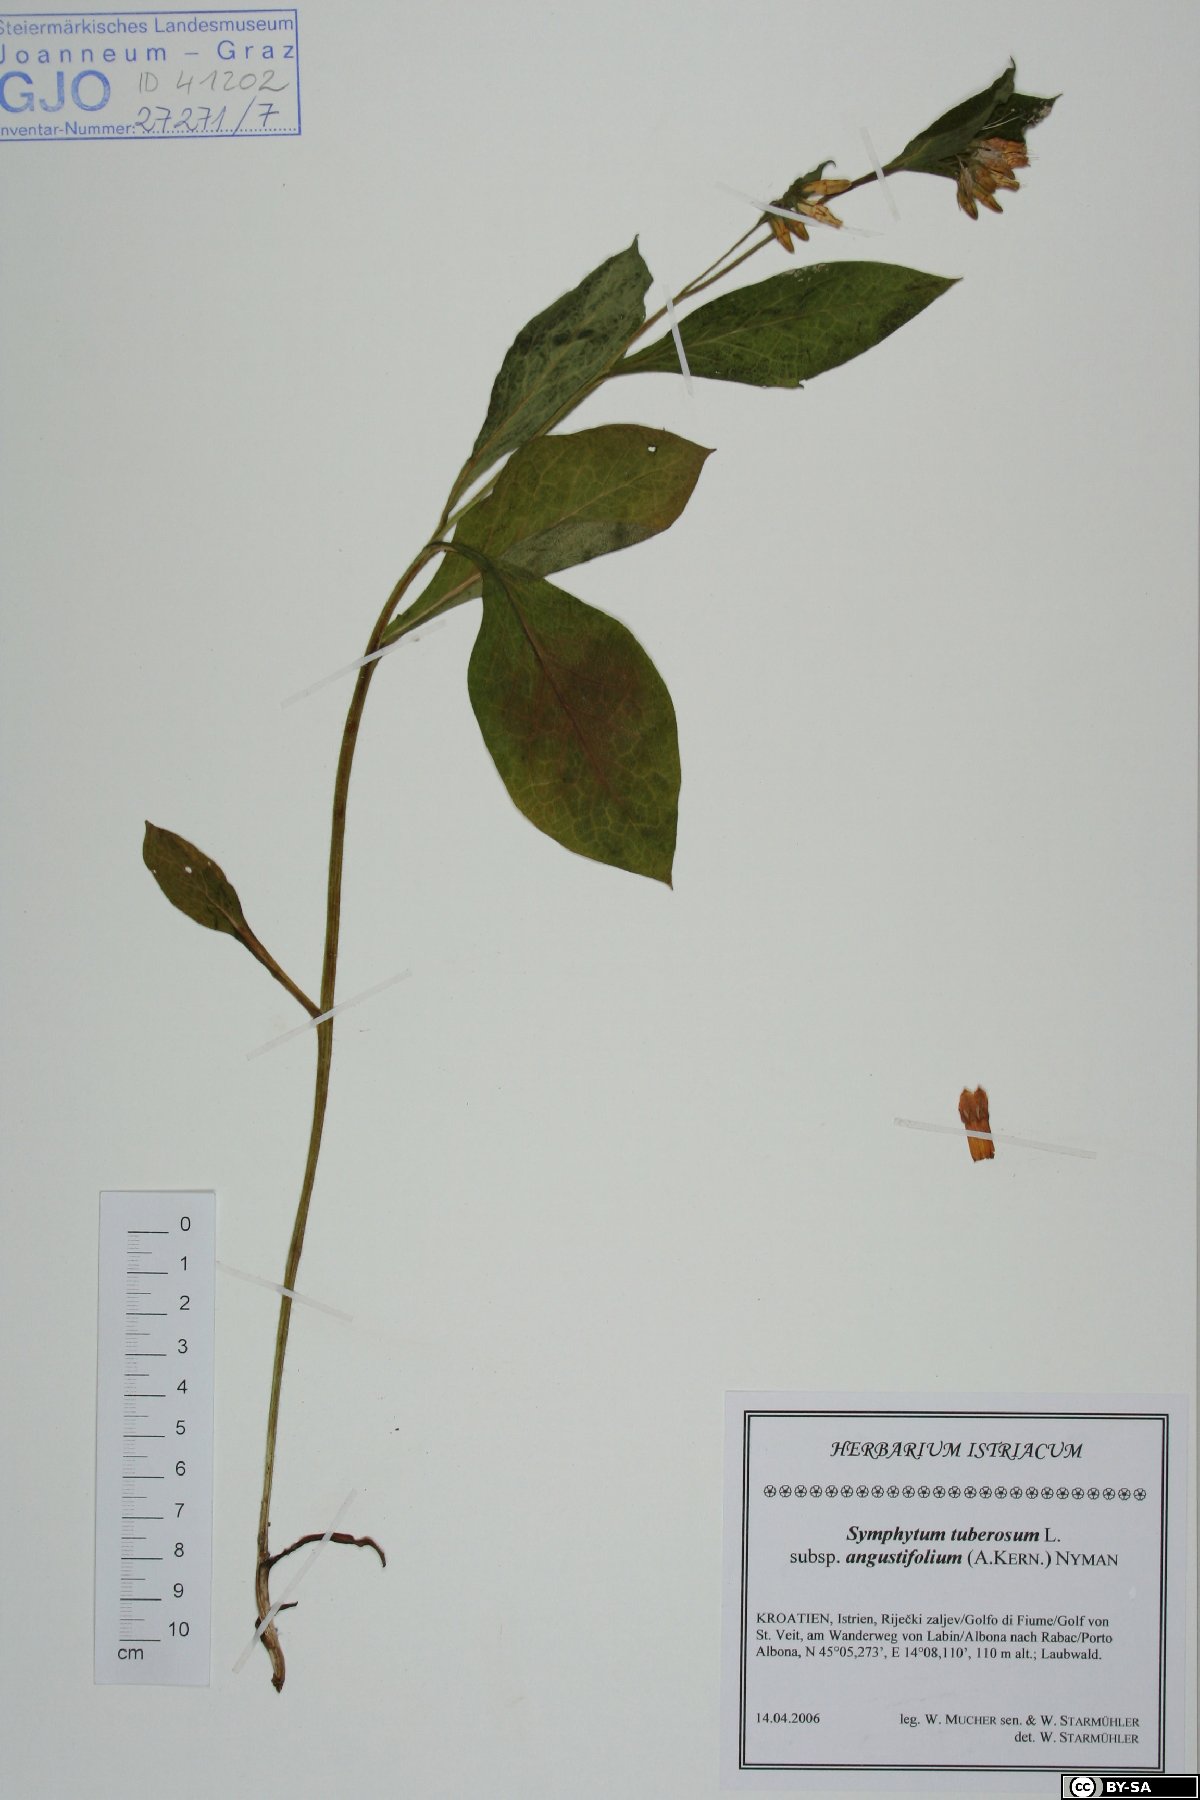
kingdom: Plantae
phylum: Tracheophyta
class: Magnoliopsida
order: Boraginales
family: Boraginaceae
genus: Symphytum
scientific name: Symphytum tuberosum
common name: Tuberous comfrey
